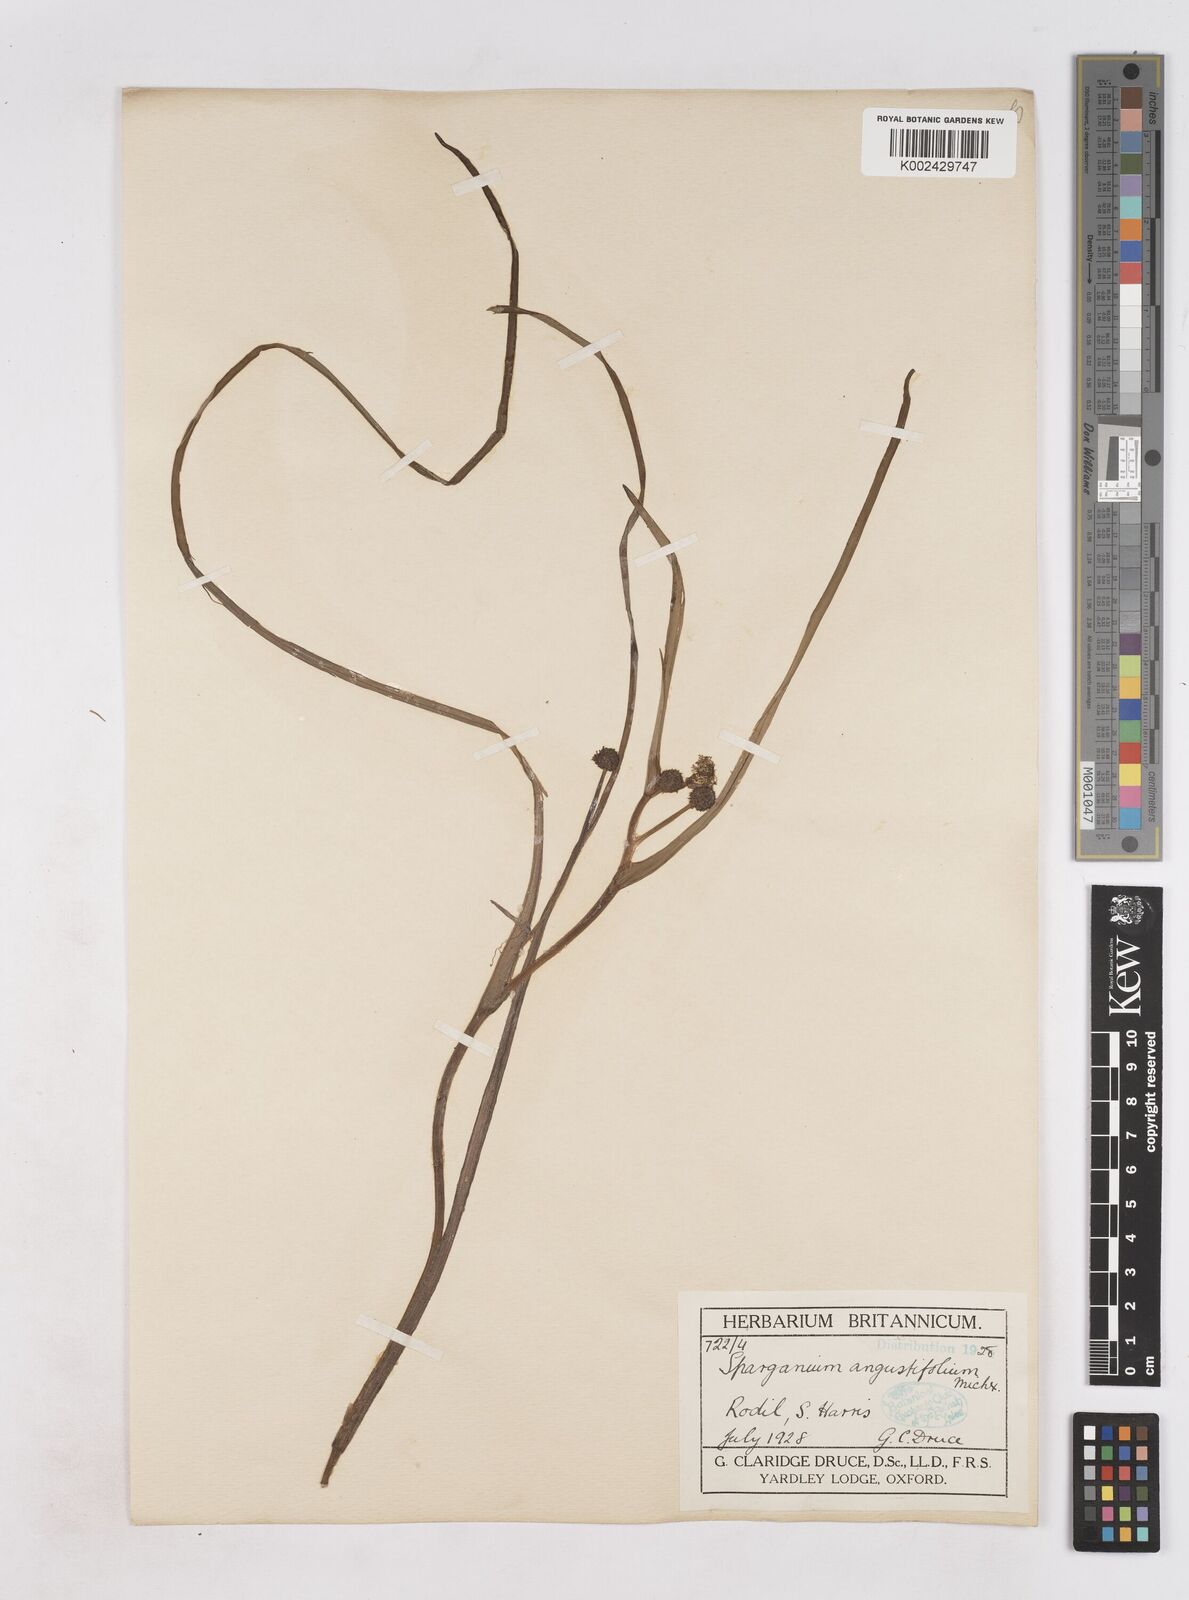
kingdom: Plantae
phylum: Tracheophyta
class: Liliopsida
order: Poales
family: Typhaceae
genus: Sparganium
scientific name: Sparganium angustifolium
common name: Floating bur-reed
